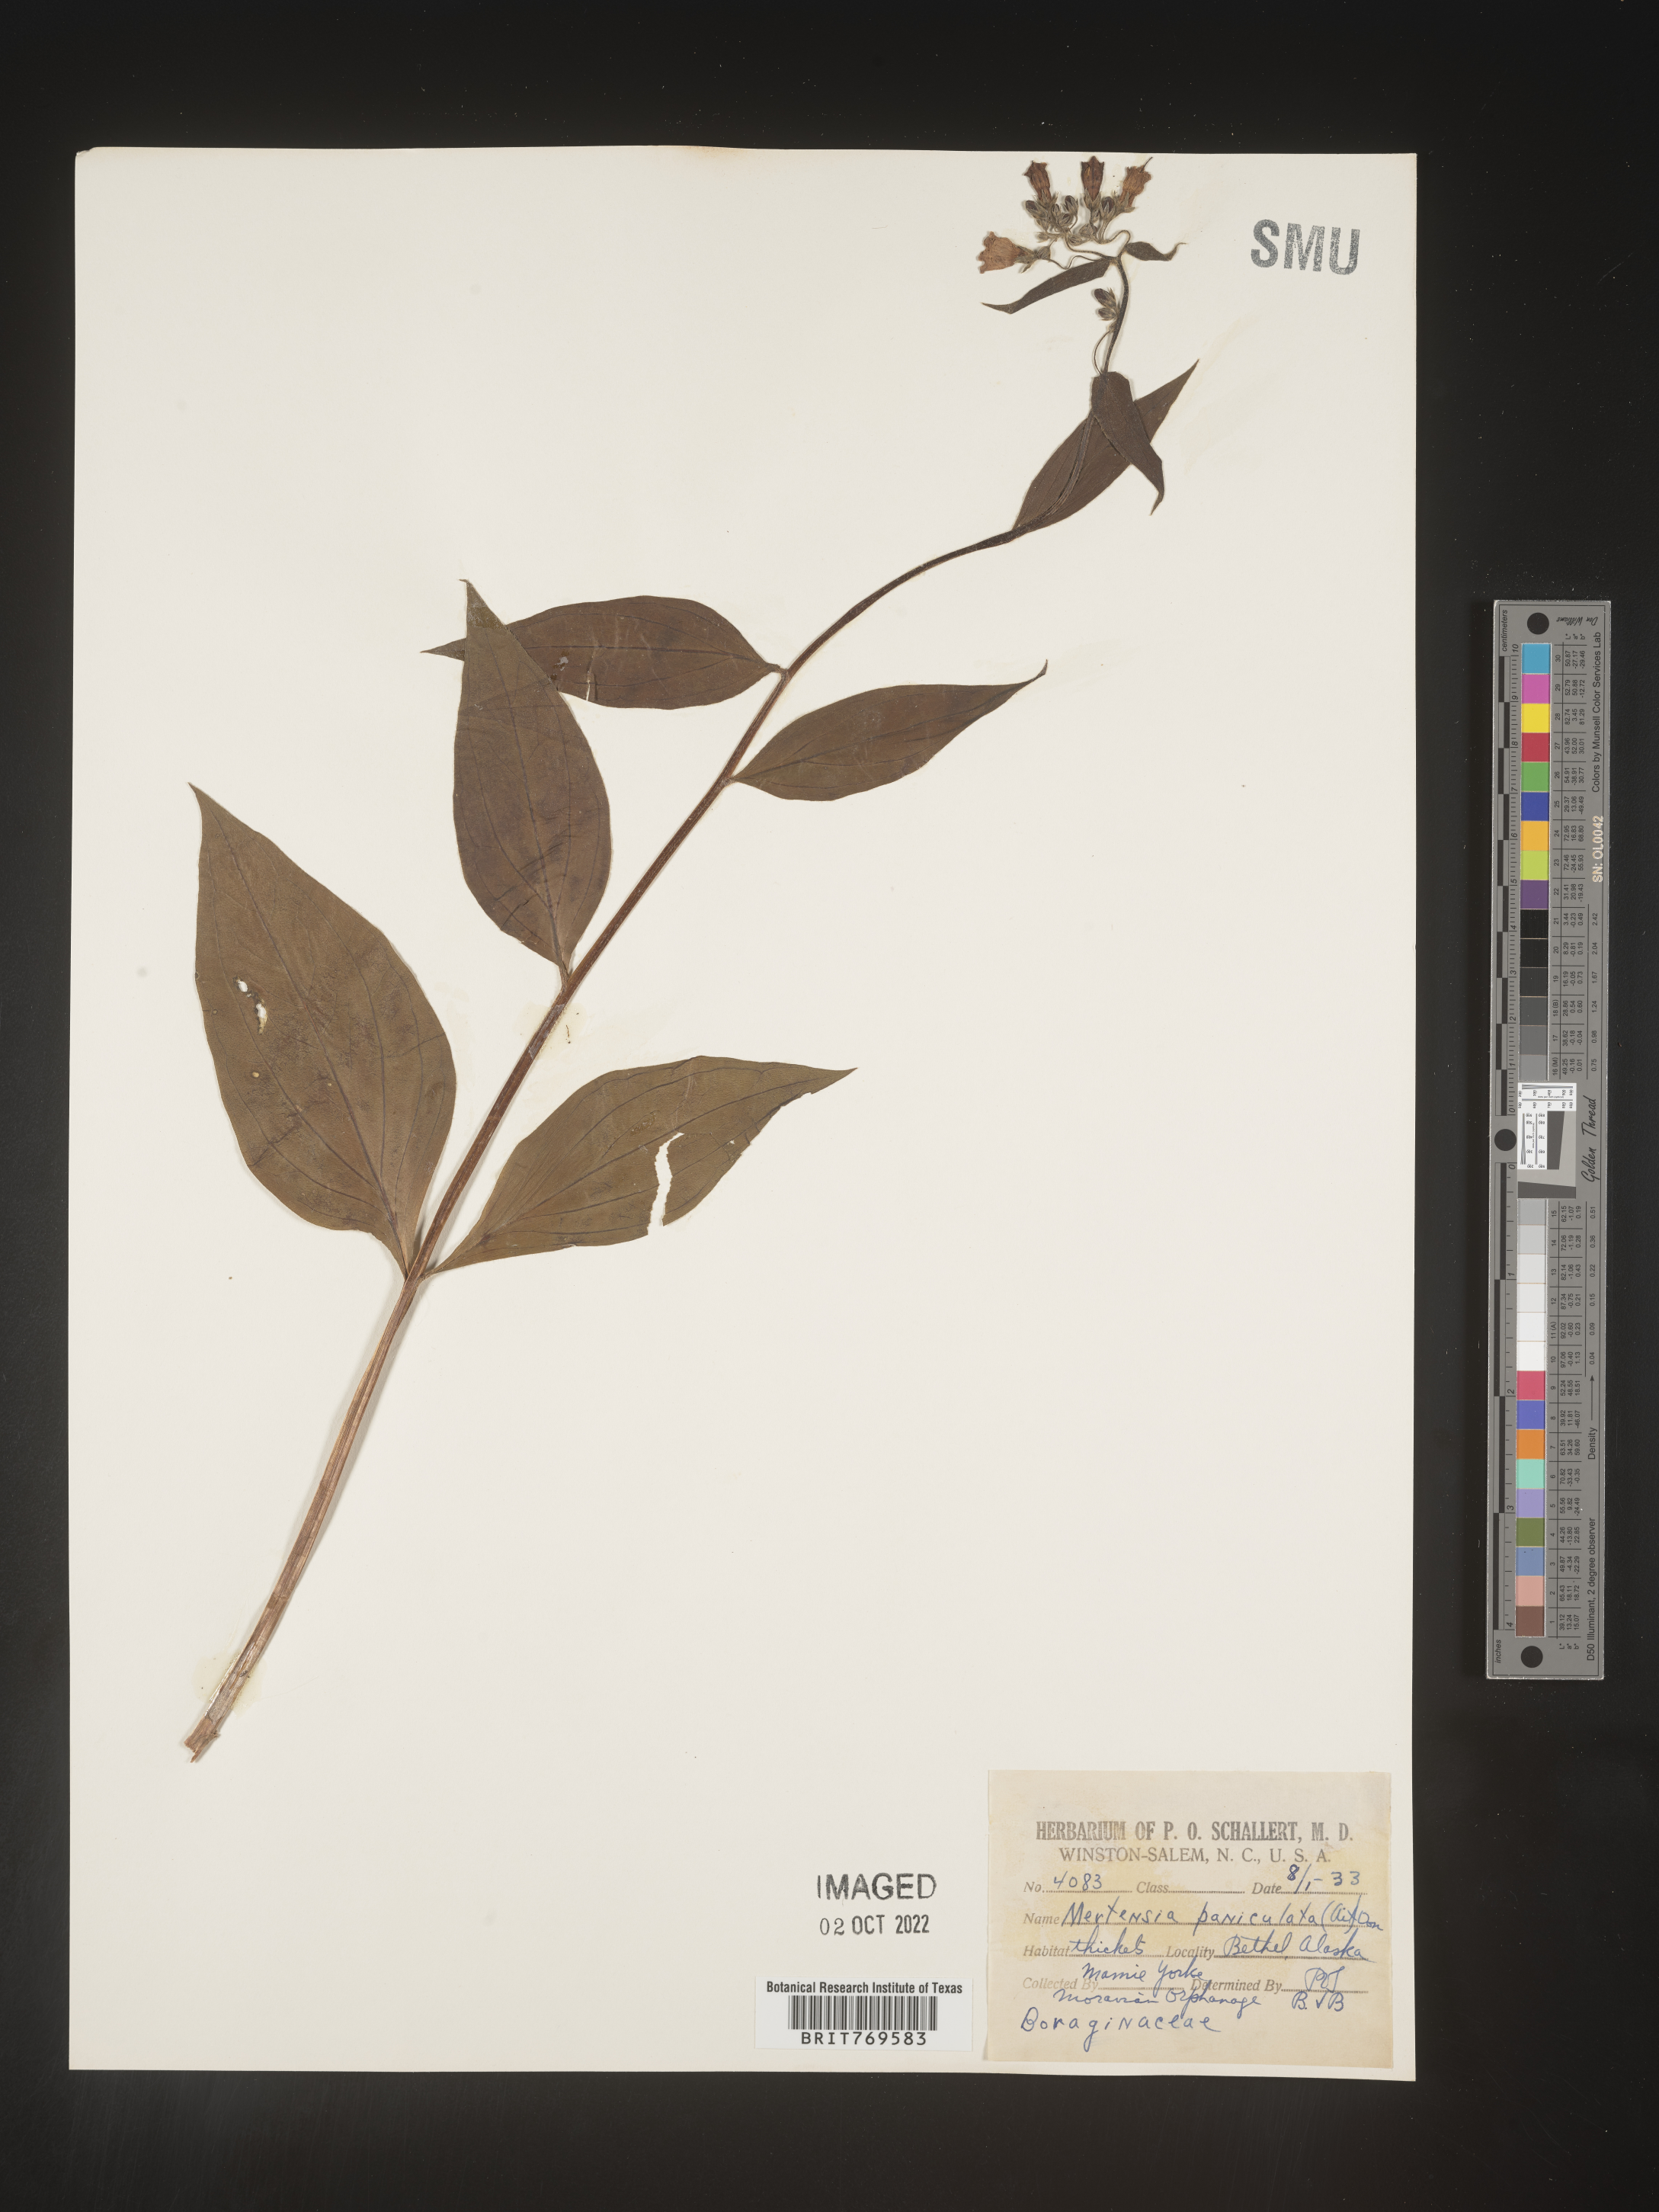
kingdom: Plantae
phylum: Tracheophyta
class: Magnoliopsida
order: Boraginales
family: Boraginaceae
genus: Mertensia
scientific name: Mertensia
